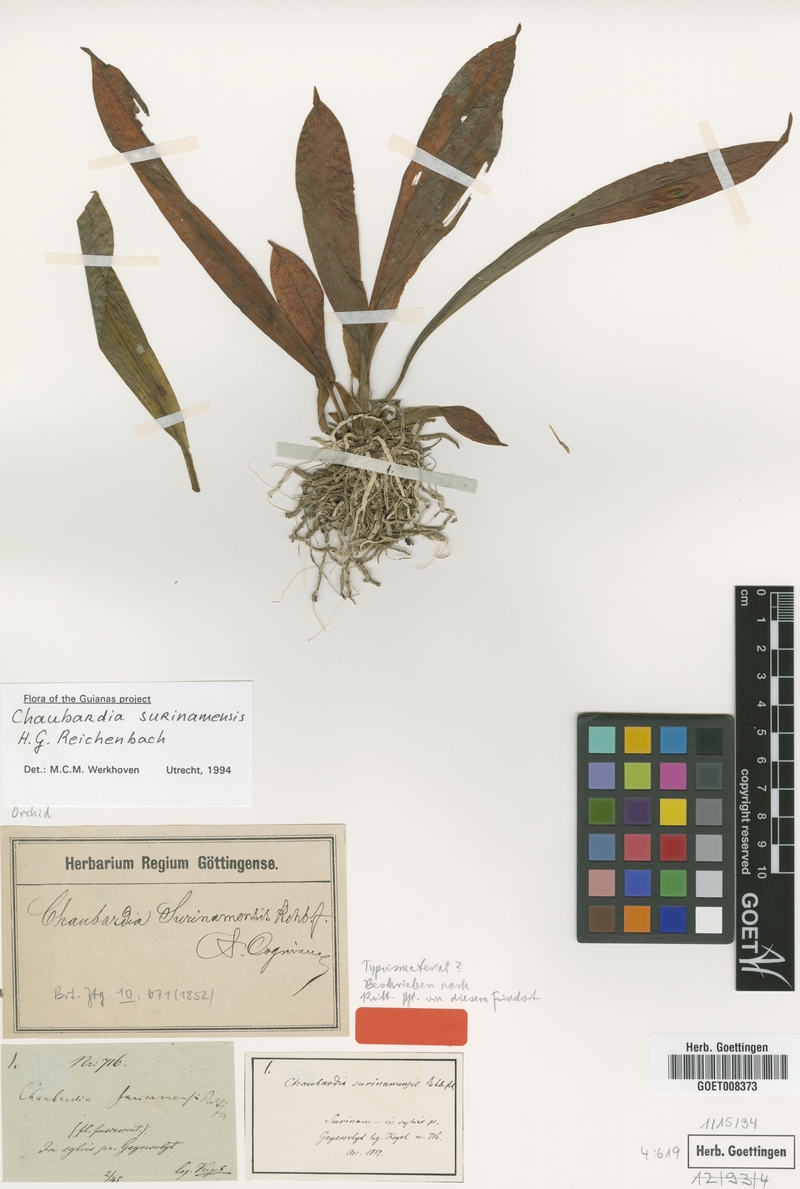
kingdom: Plantae
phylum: Tracheophyta
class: Liliopsida
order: Asparagales
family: Orchidaceae
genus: Chaubardia
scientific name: Chaubardia surinamensis
